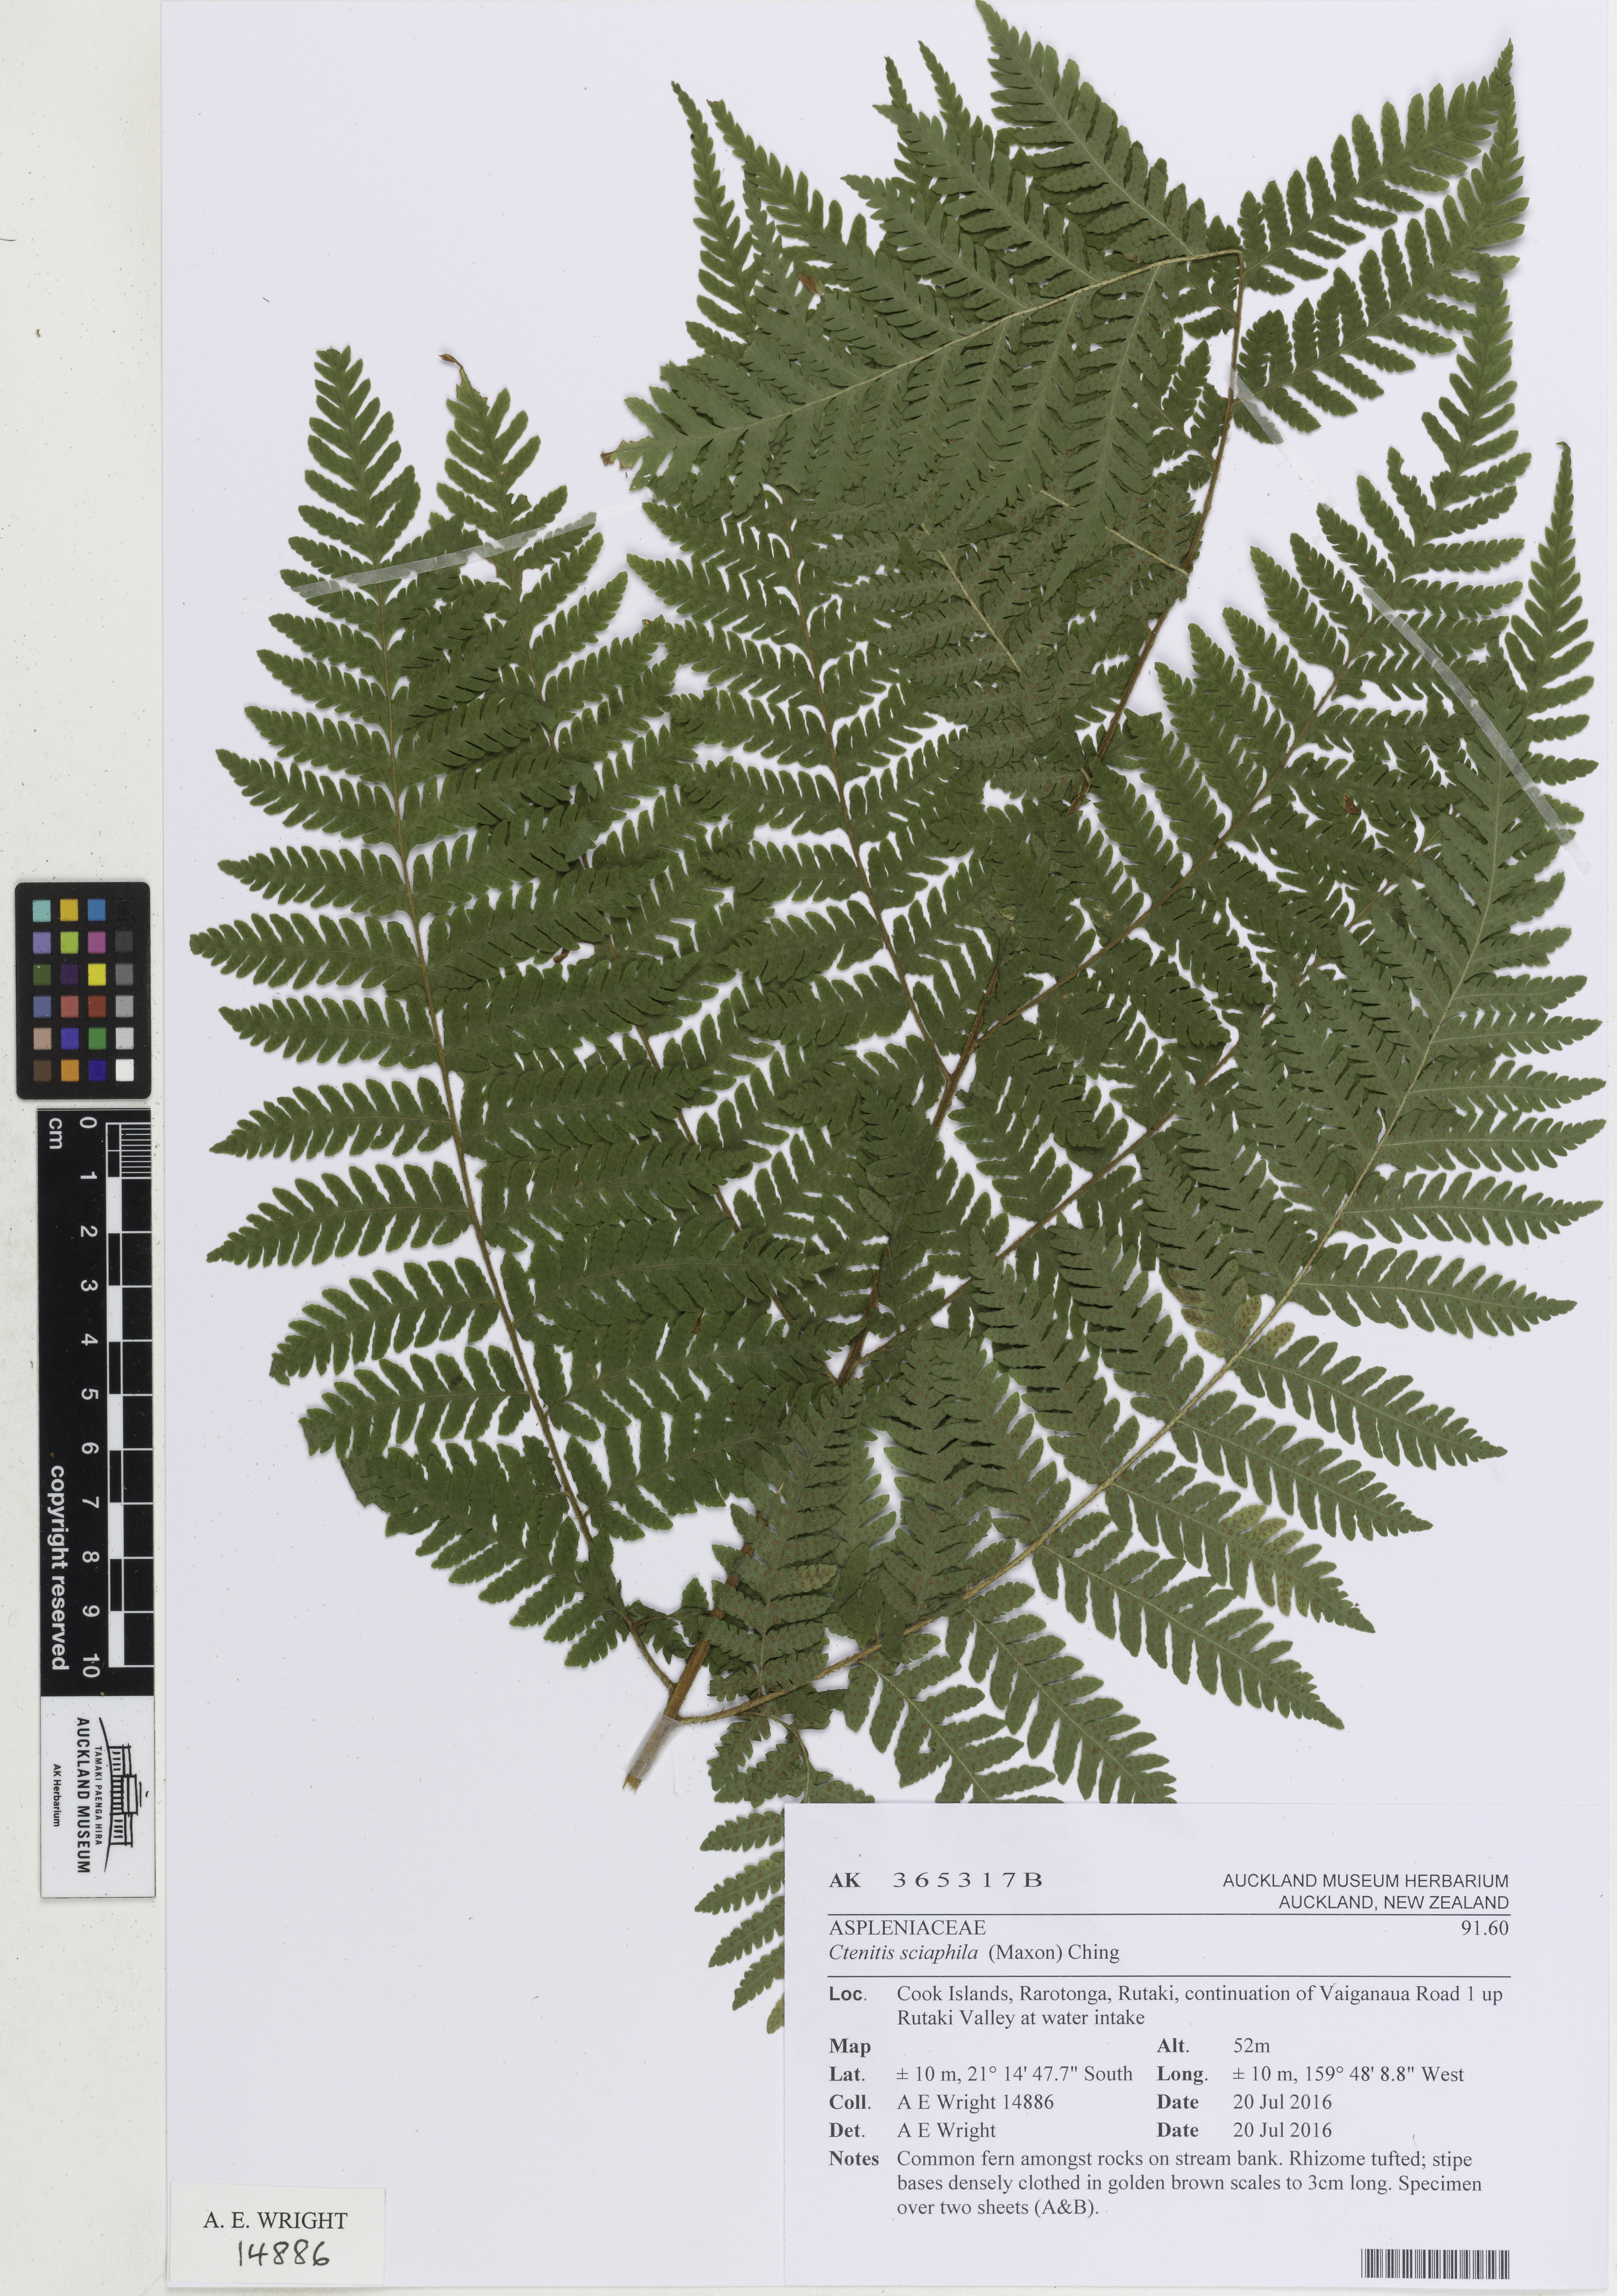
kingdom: Plantae
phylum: Tracheophyta
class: Polypodiopsida
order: Polypodiales
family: Dryopteridaceae
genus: Ctenitis
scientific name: Ctenitis sciaphila
